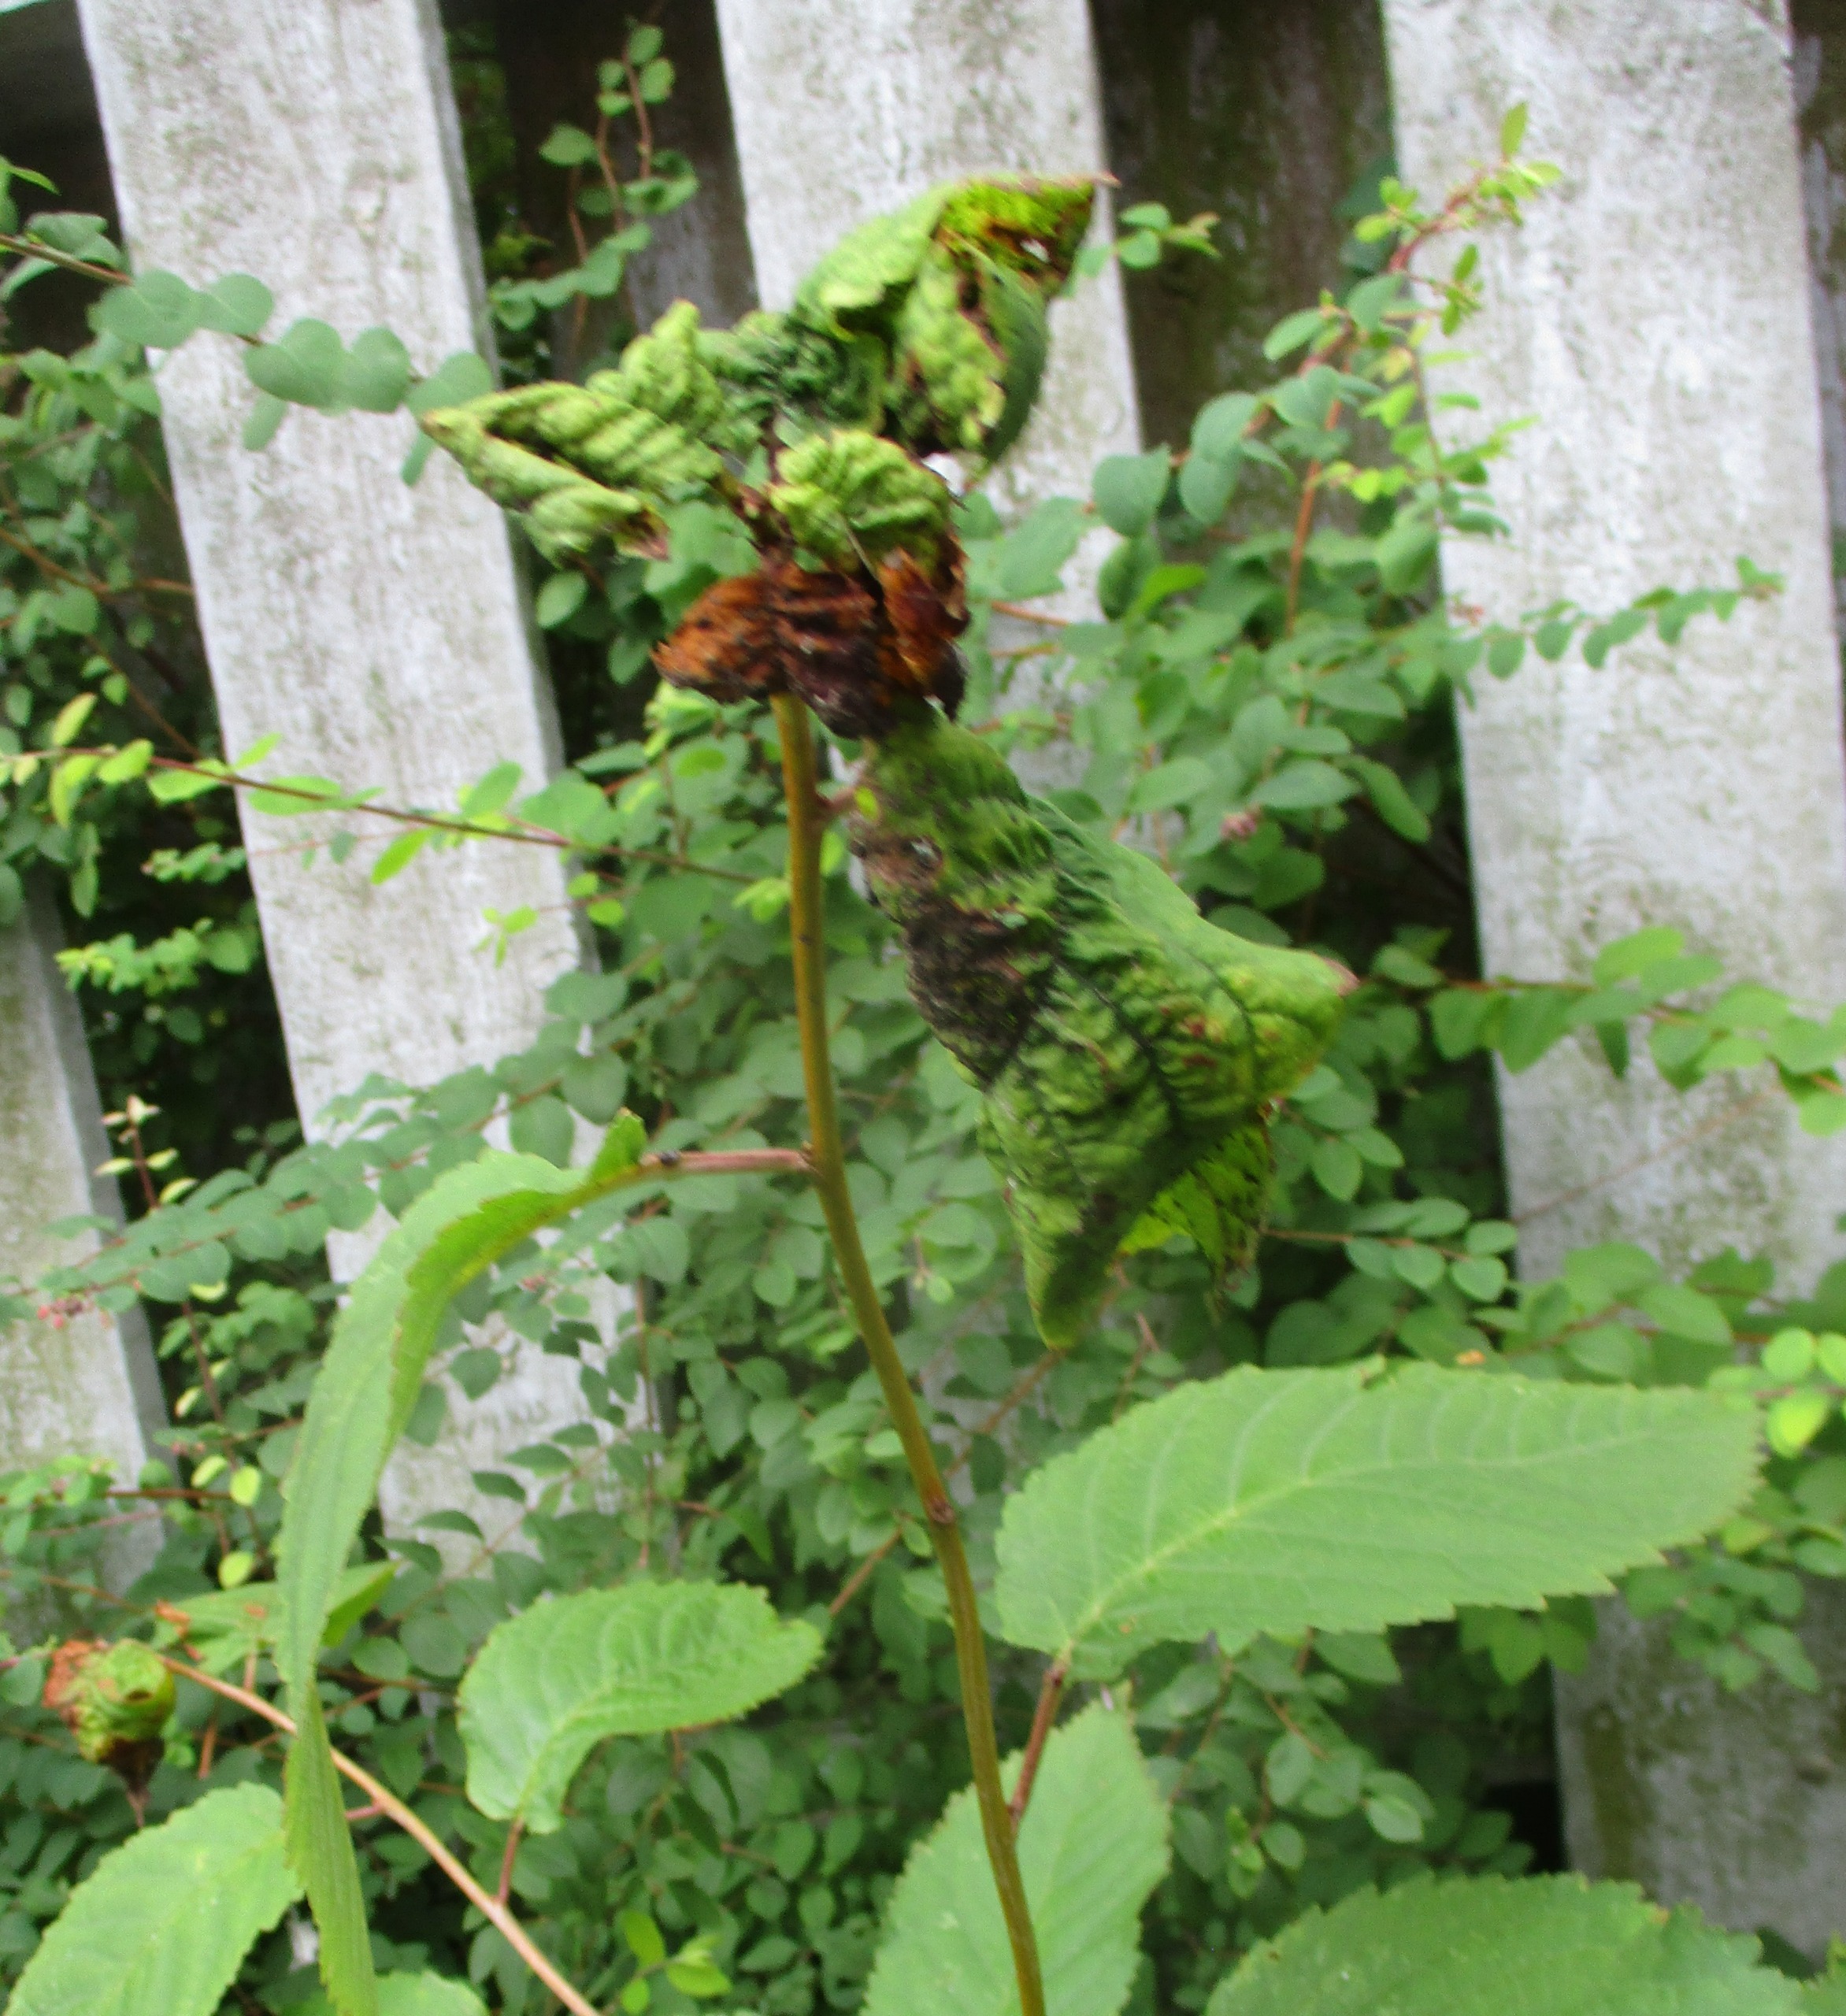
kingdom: Animalia
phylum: Arthropoda
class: Insecta
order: Hemiptera
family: Aphididae
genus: Myzus
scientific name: Myzus cerasi
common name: Kirsebærbladlus
